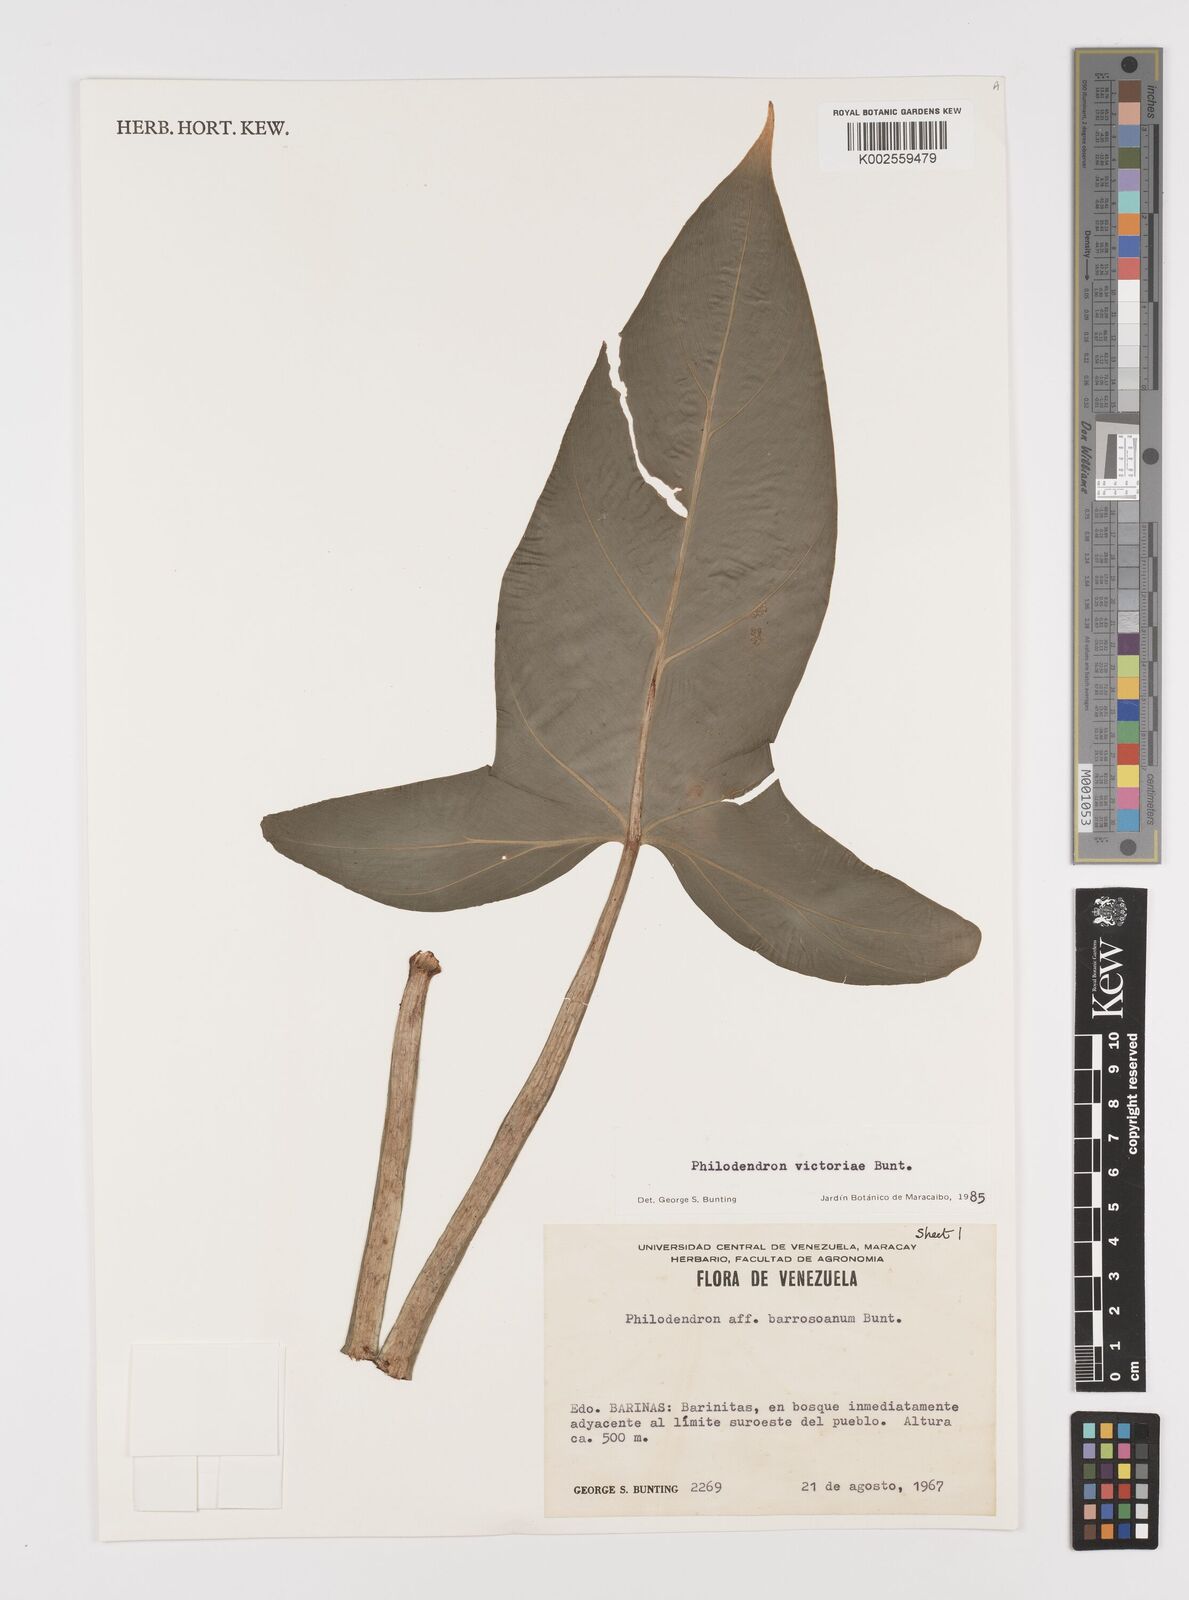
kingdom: Plantae
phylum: Tracheophyta
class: Liliopsida
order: Alismatales
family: Araceae
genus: Philodendron
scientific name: Philodendron victoriae
